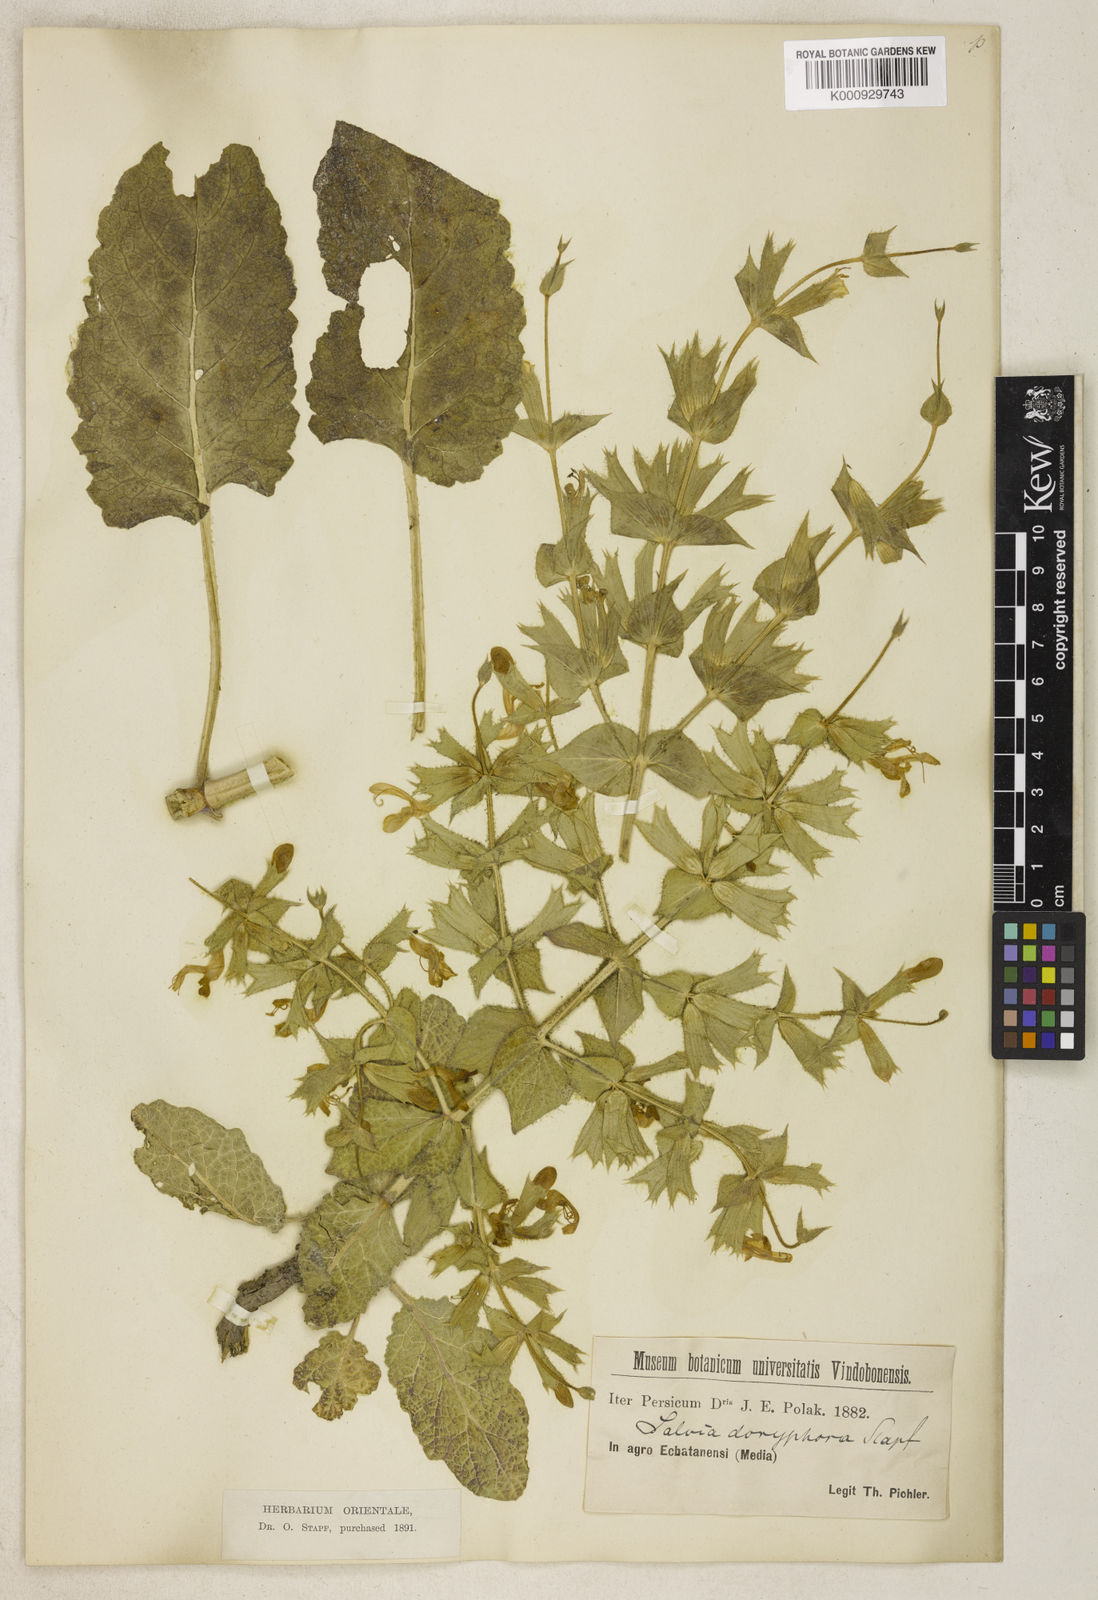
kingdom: Plantae
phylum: Tracheophyta
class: Magnoliopsida
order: Lamiales
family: Lamiaceae
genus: Salvia
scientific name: Salvia spinosa
